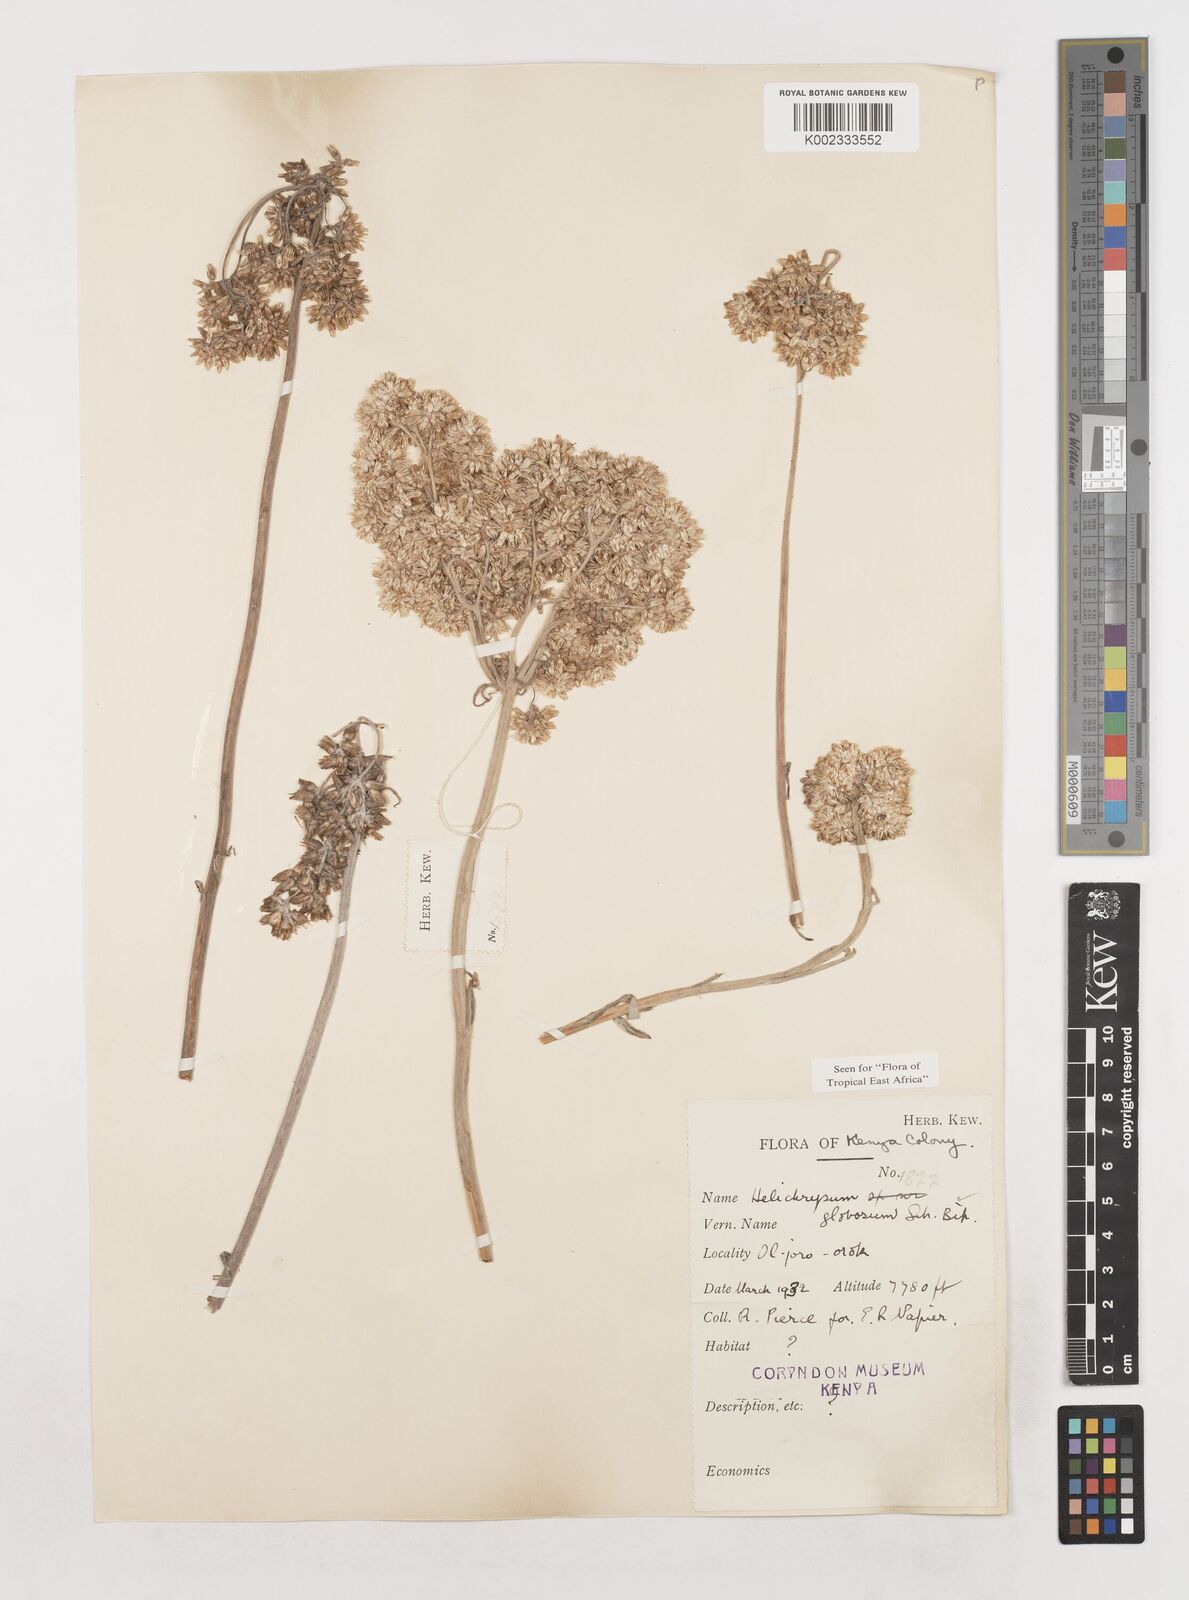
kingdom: Plantae
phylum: Tracheophyta
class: Magnoliopsida
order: Asterales
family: Asteraceae
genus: Helichrysum
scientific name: Helichrysum globosum
